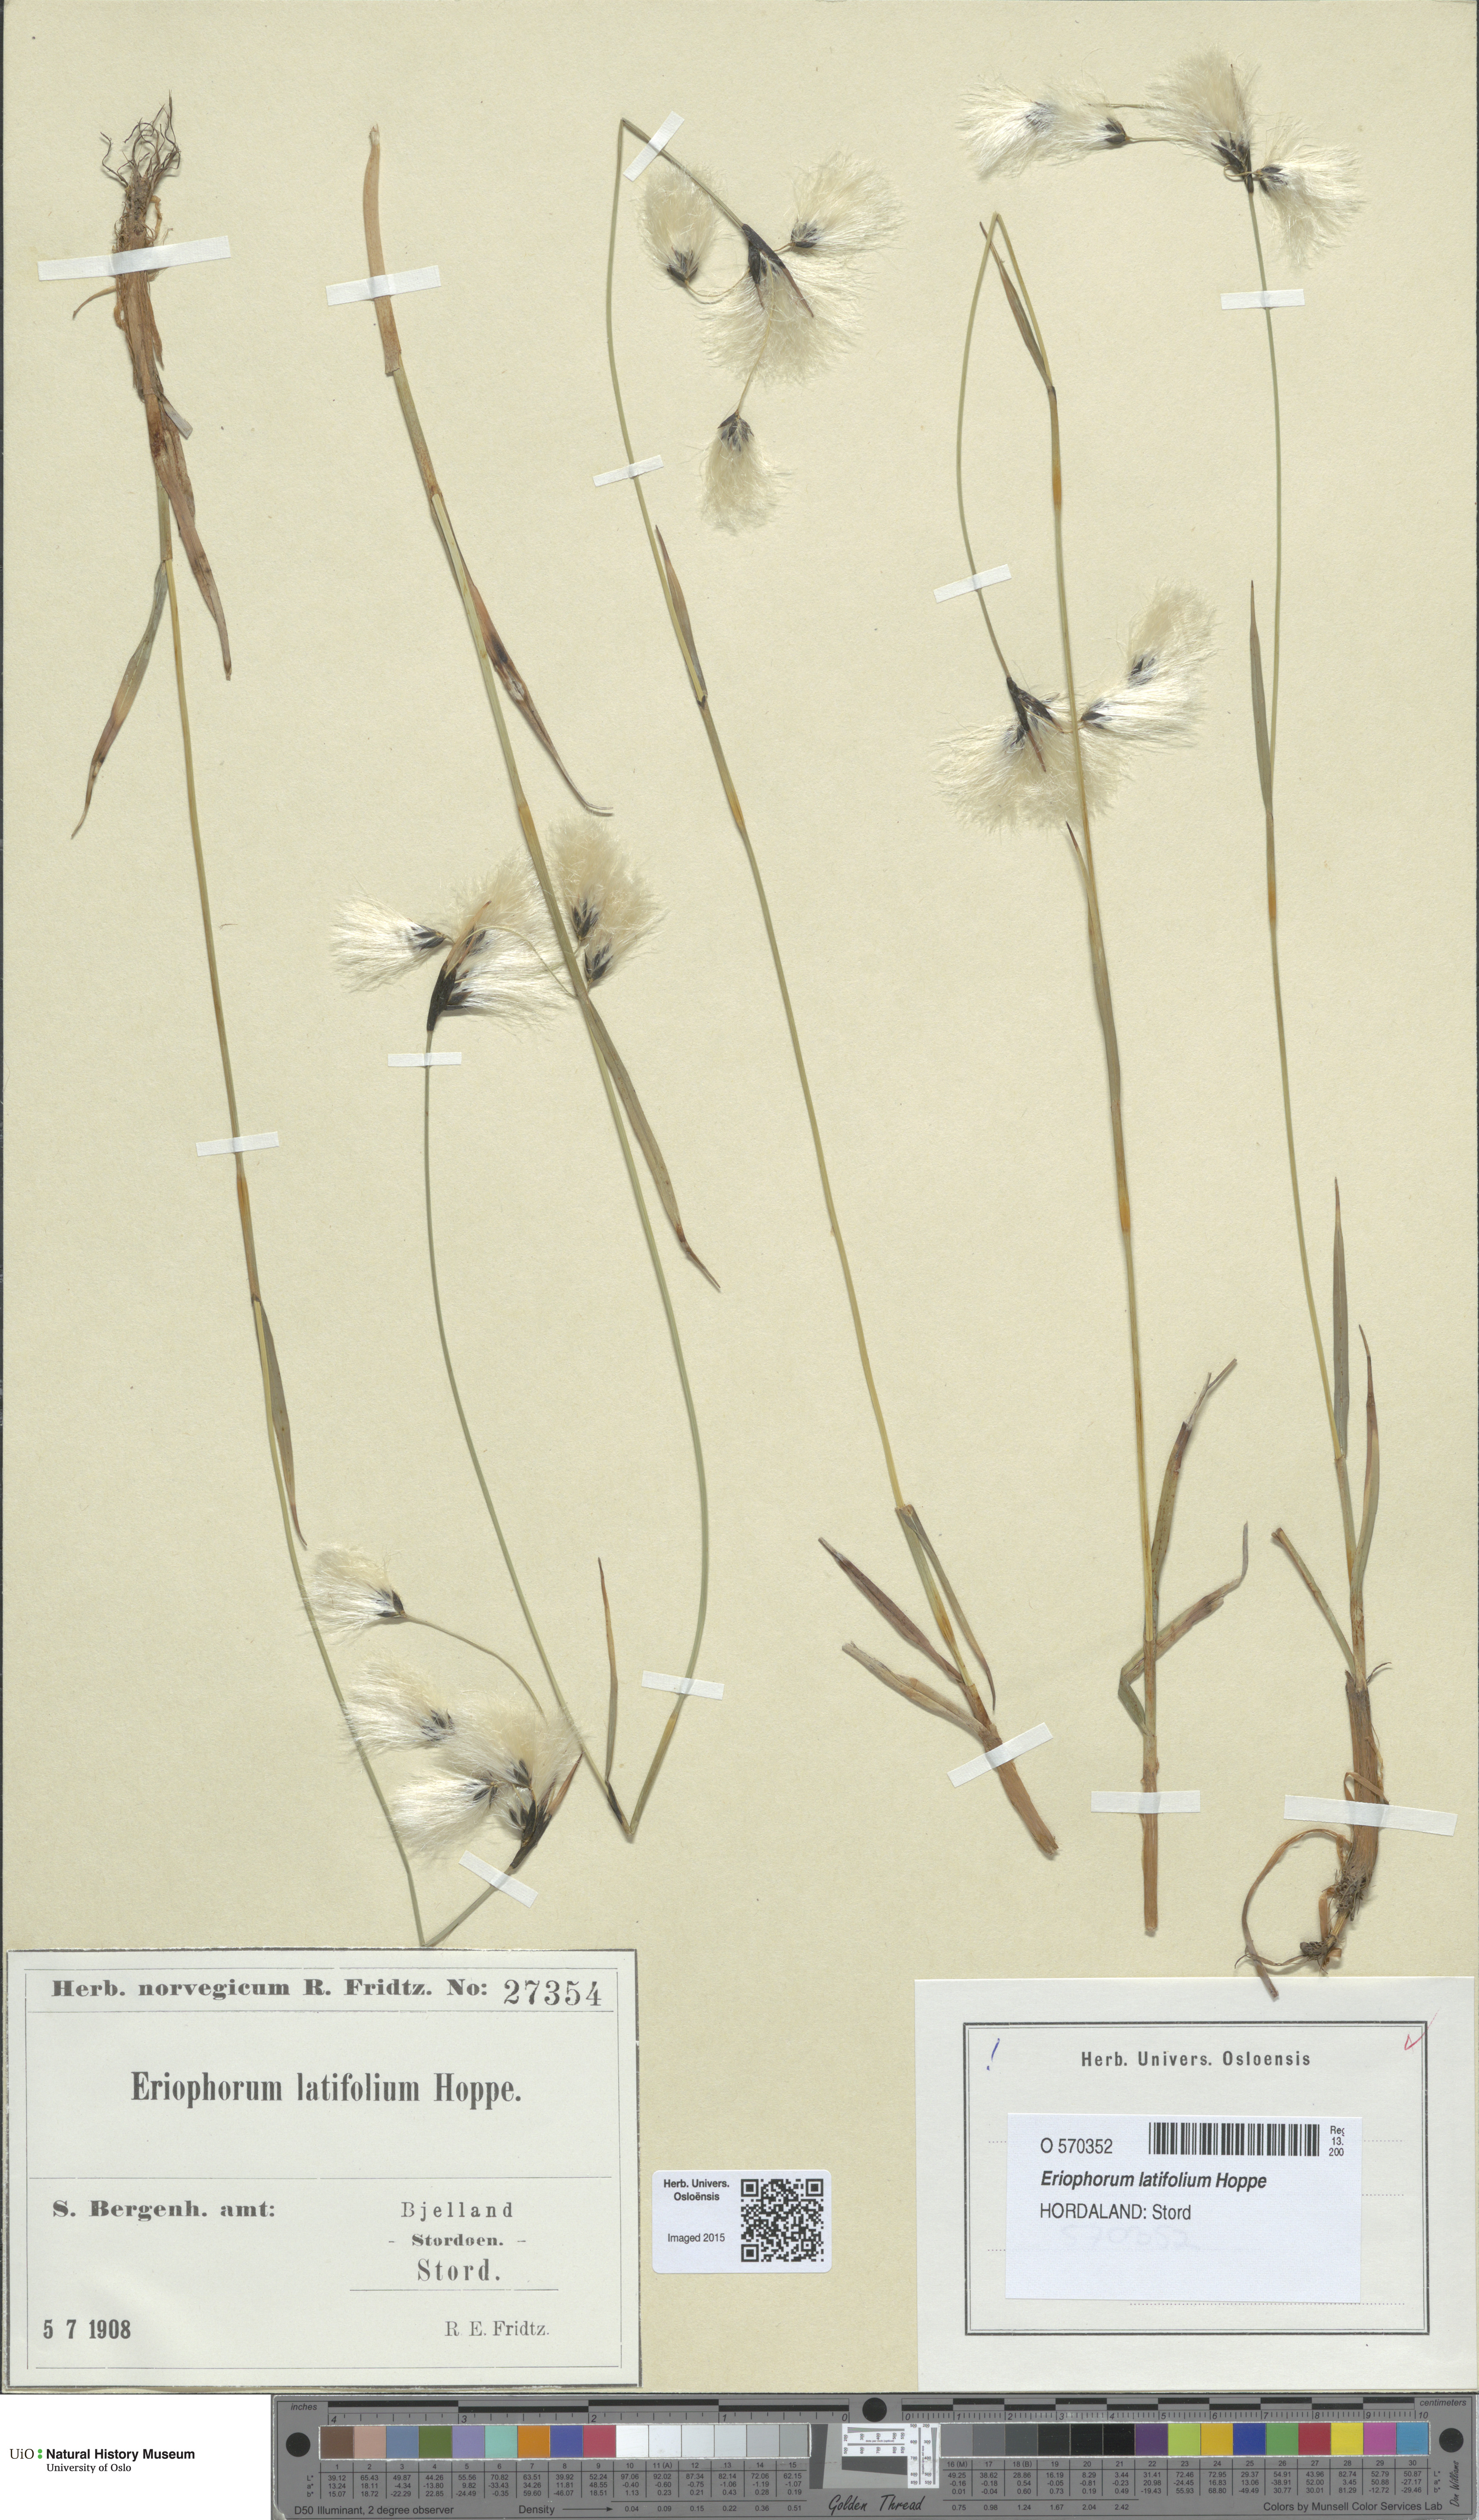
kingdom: Plantae
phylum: Tracheophyta
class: Liliopsida
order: Poales
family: Cyperaceae
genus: Eriophorum
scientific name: Eriophorum latifolium
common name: Broad-leaved cottongrass
